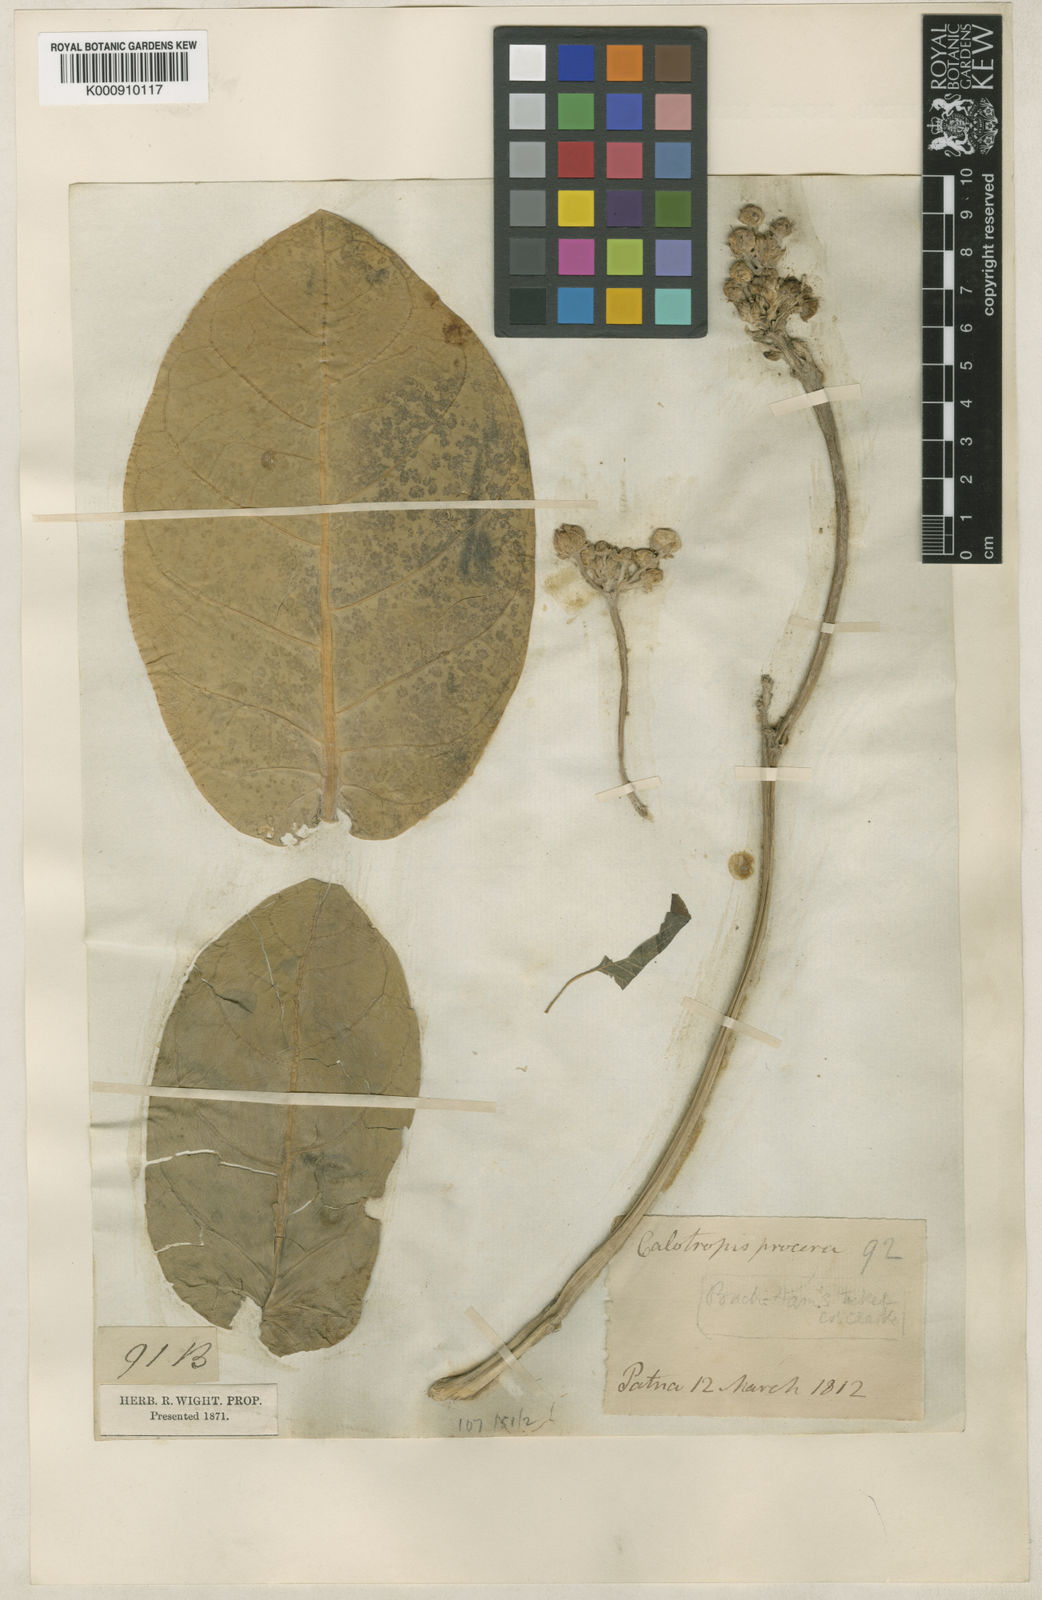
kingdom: Plantae
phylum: Tracheophyta
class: Magnoliopsida
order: Gentianales
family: Apocynaceae
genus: Calotropis
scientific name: Calotropis procera
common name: Roostertree
